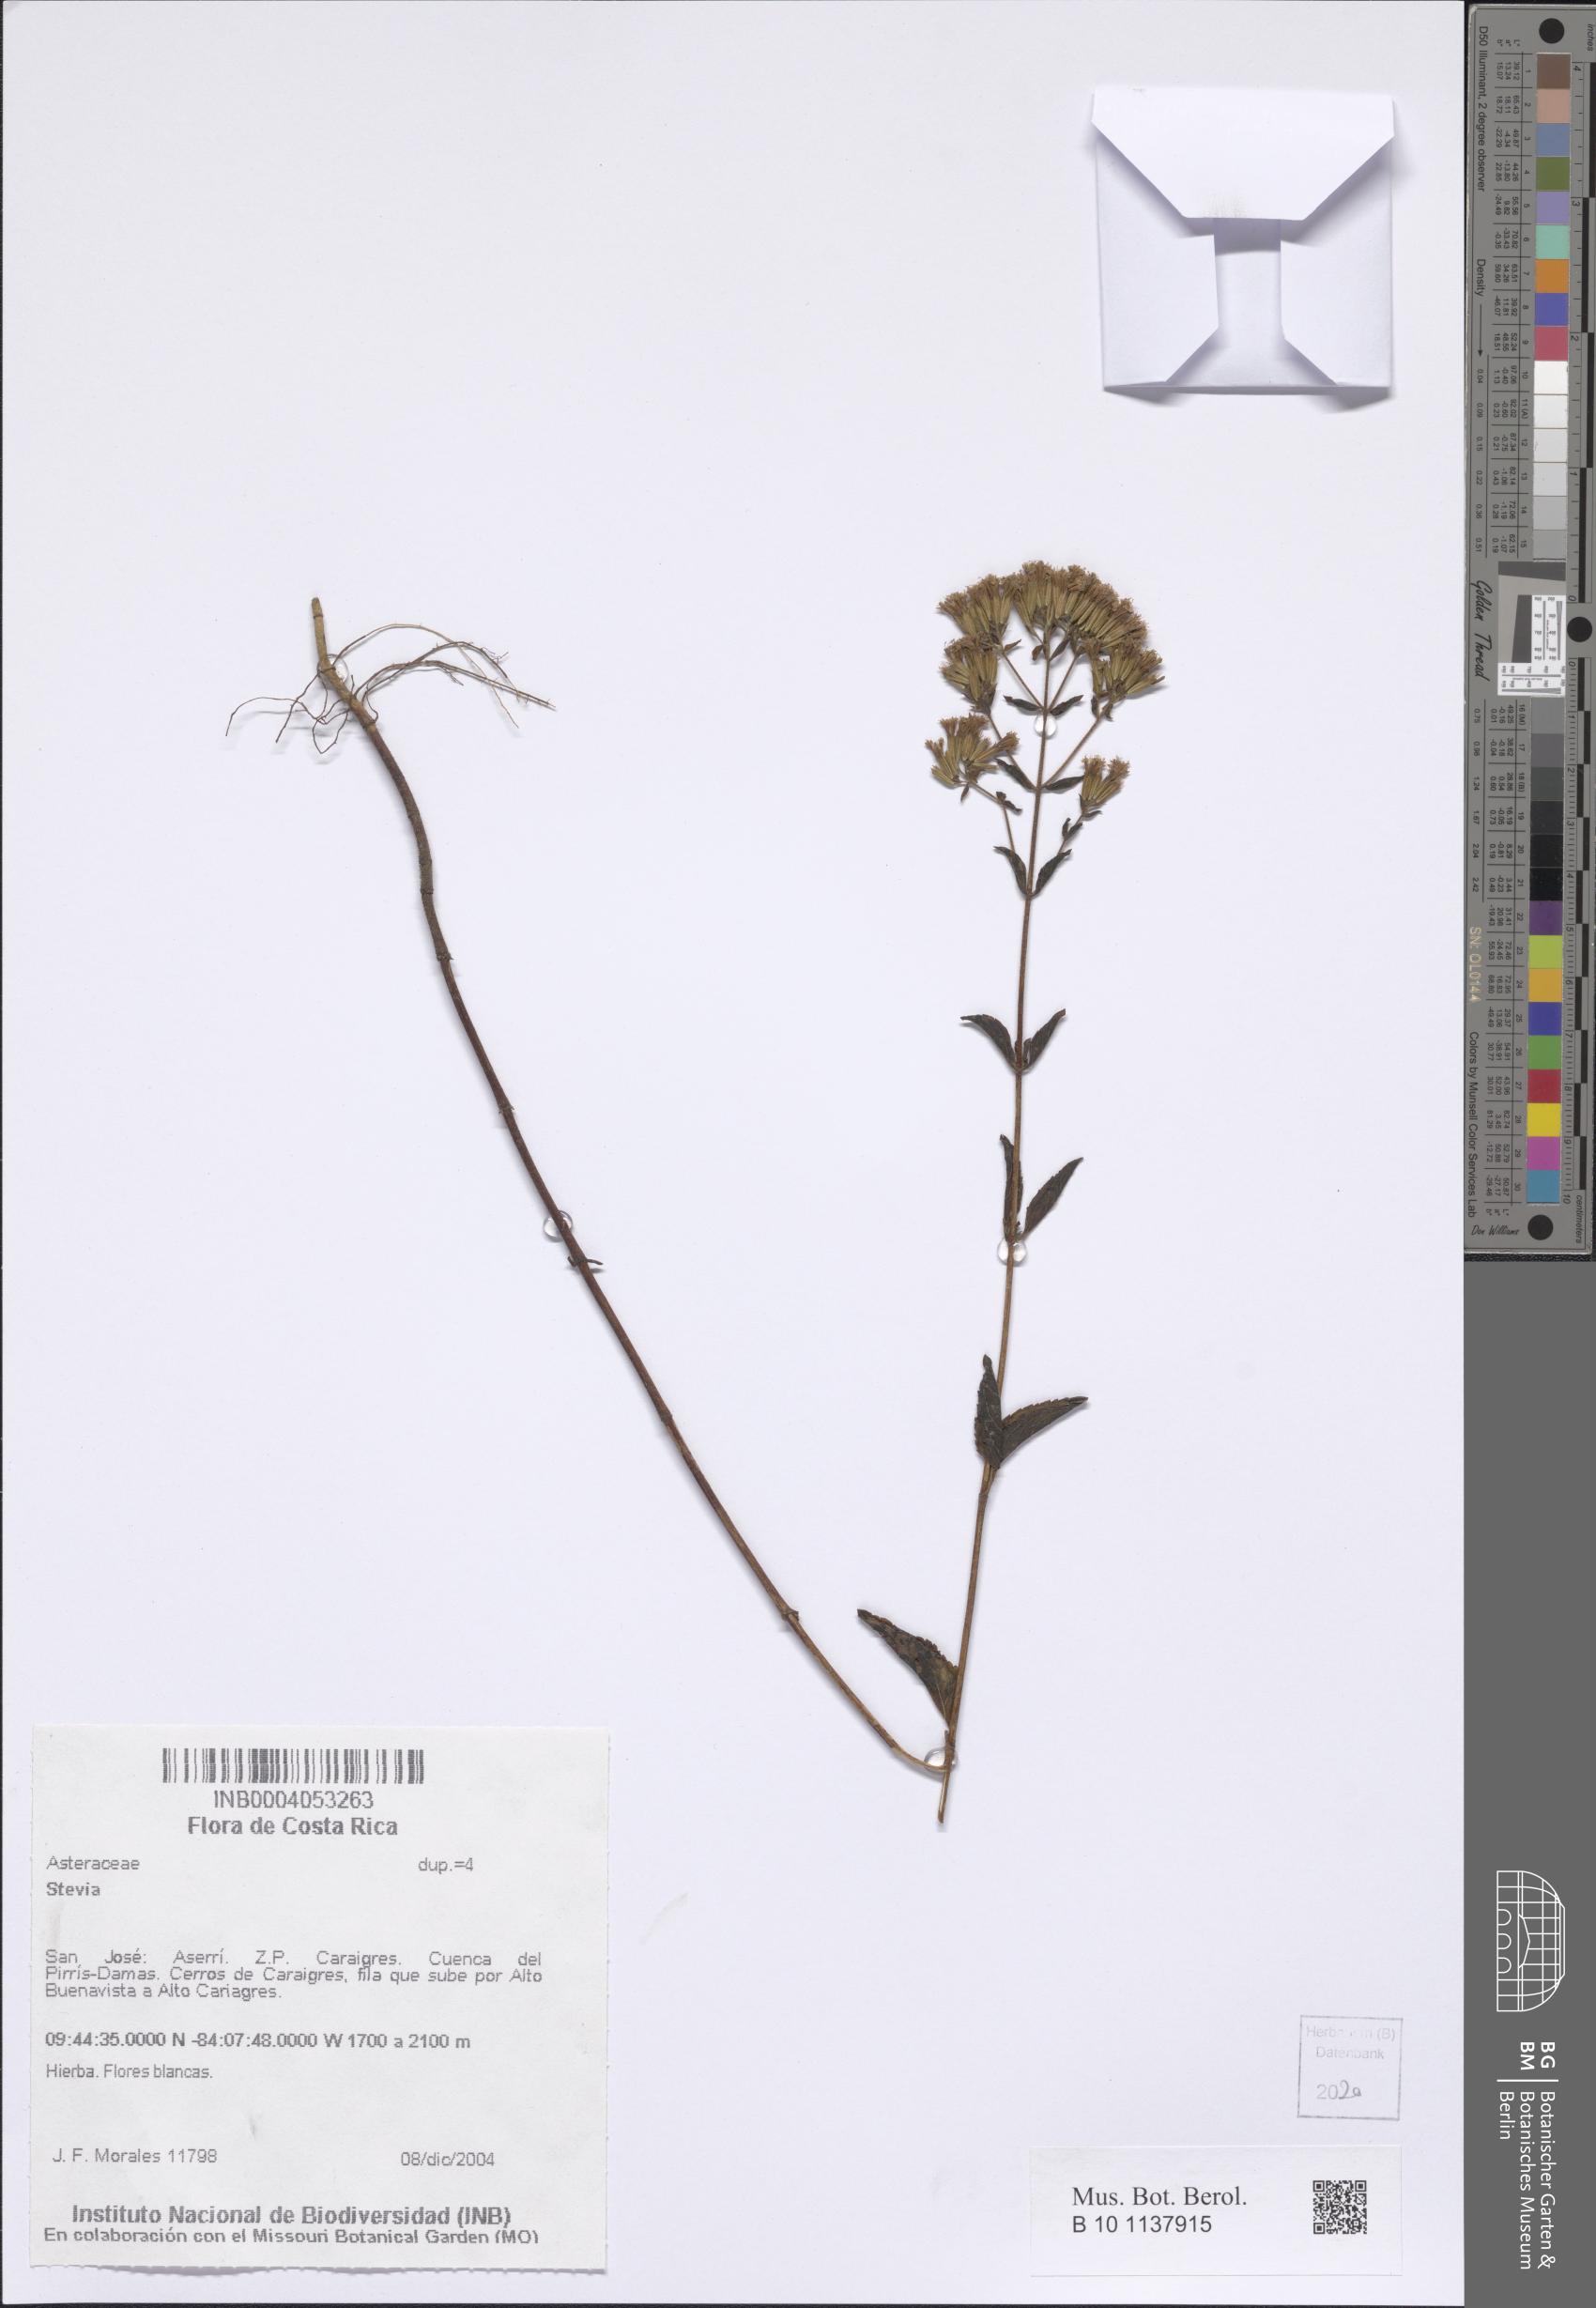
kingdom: Plantae
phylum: Tracheophyta
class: Magnoliopsida
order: Asterales
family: Asteraceae
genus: Stevia
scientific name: Stevia
